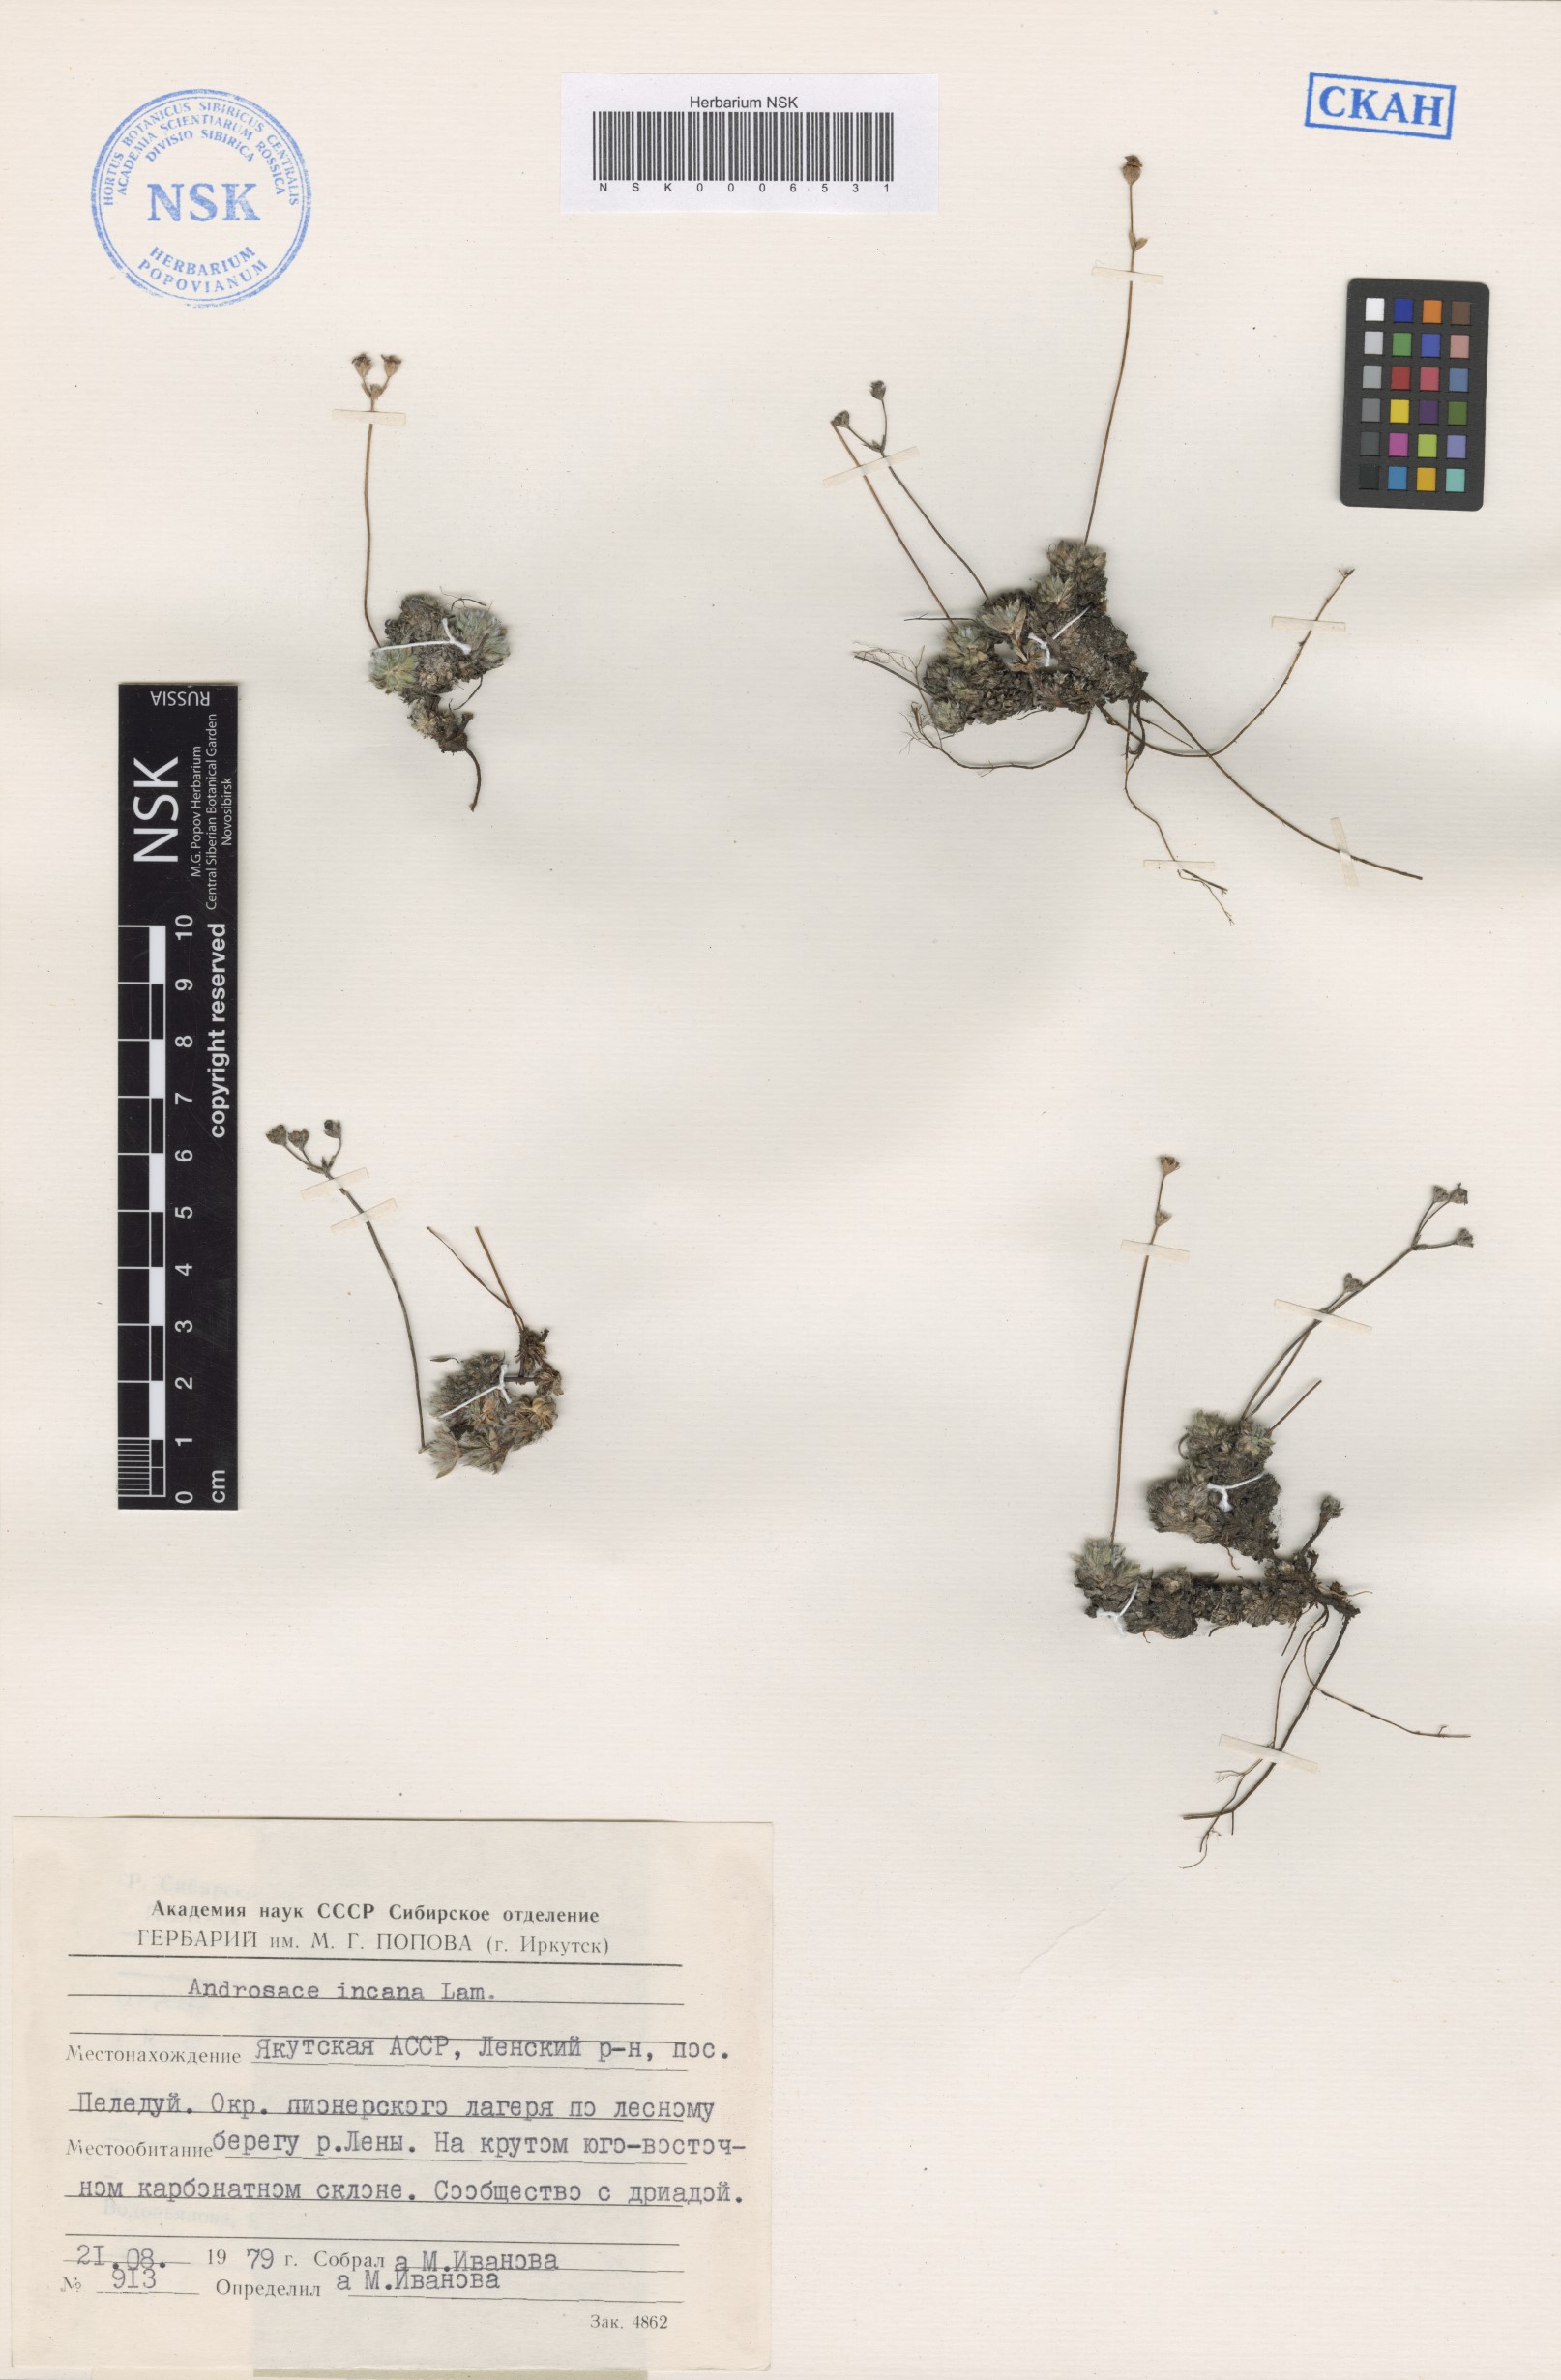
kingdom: Plantae
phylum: Tracheophyta
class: Magnoliopsida
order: Ericales
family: Primulaceae
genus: Androsace
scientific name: Androsace incana
